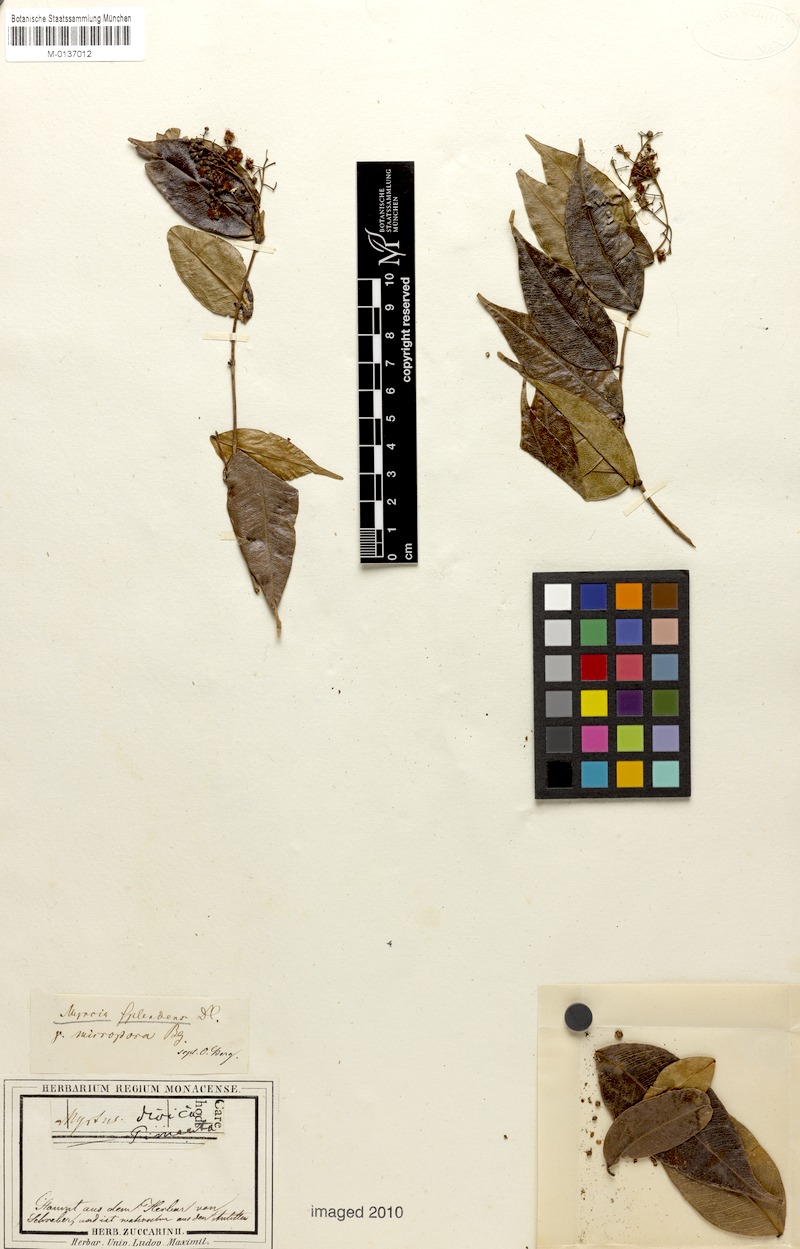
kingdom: Plantae
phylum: Tracheophyta
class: Magnoliopsida
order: Myrtales
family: Myrtaceae
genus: Myrcia
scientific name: Myrcia splendens
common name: Surinam cherry
